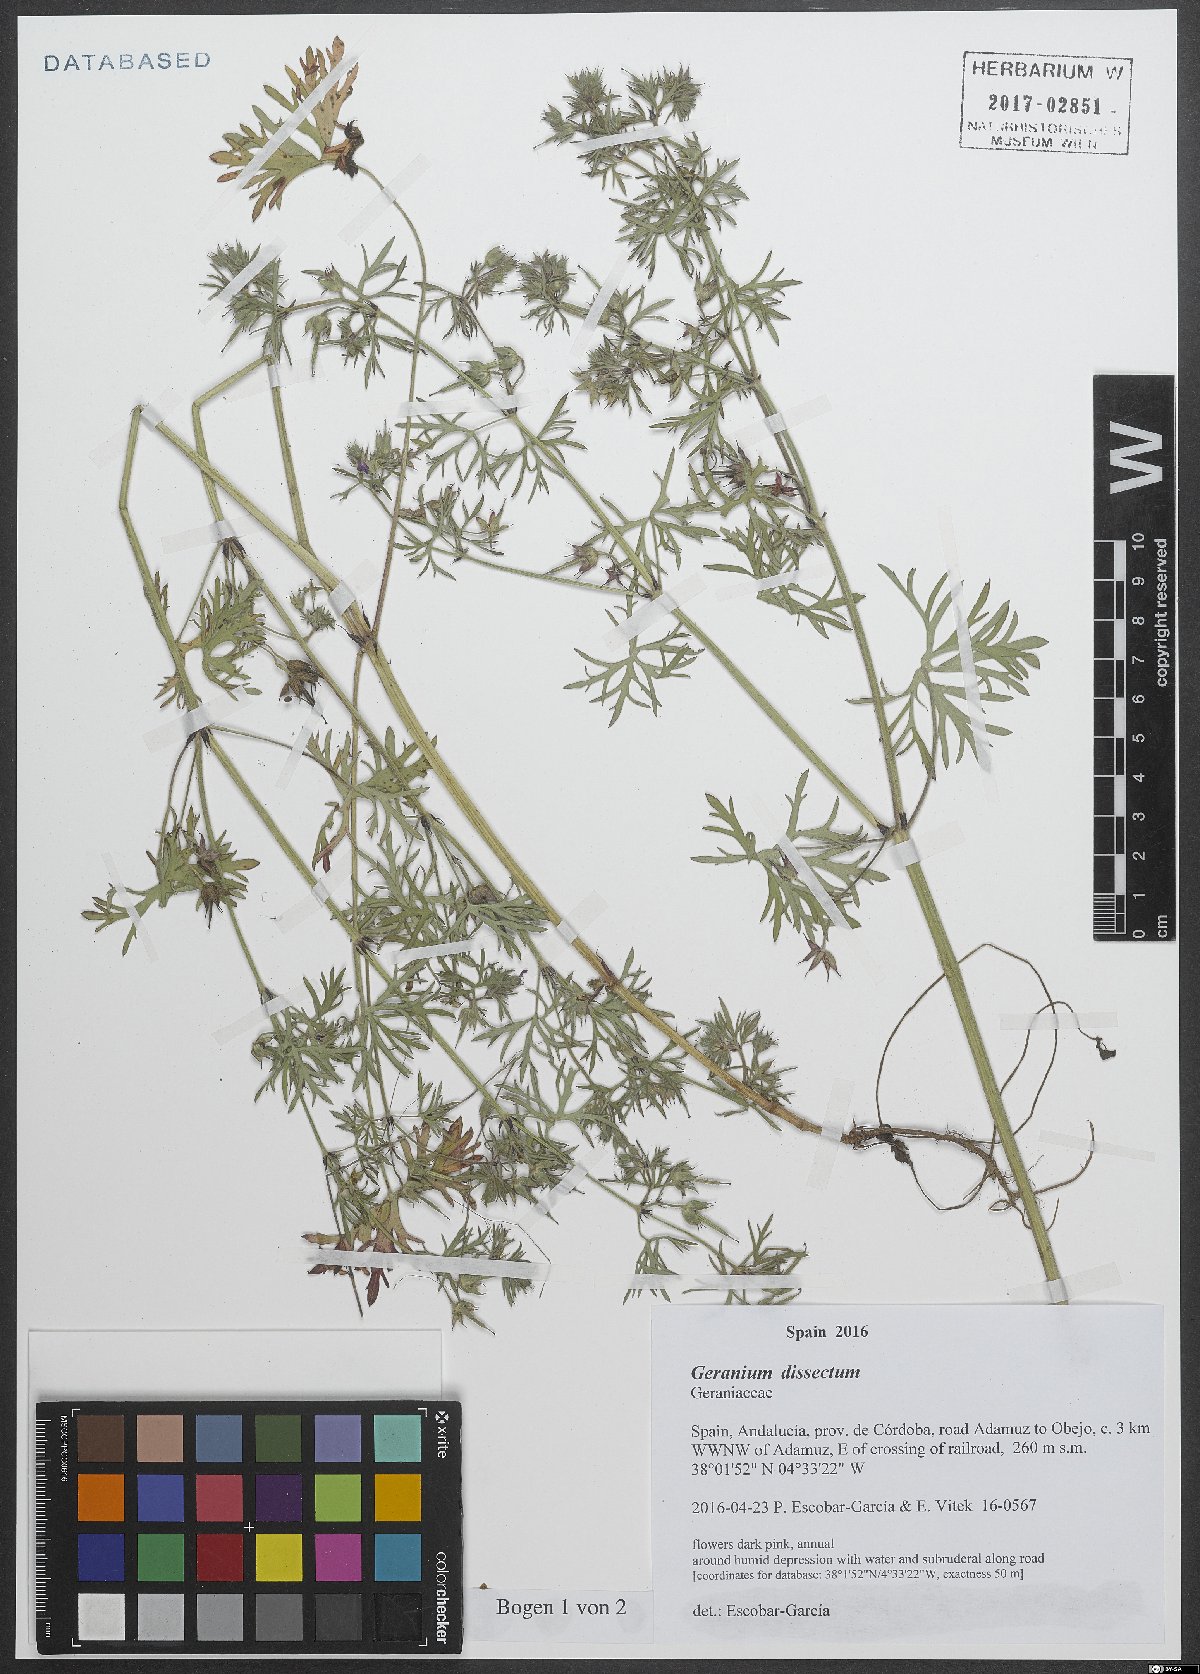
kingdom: Plantae
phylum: Tracheophyta
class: Magnoliopsida
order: Geraniales
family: Geraniaceae
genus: Geranium
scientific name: Geranium dissectum
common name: Cut-leaved crane's-bill
